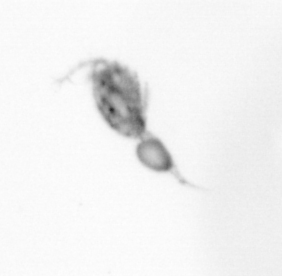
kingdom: Animalia
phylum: Arthropoda
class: Copepoda
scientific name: Copepoda
